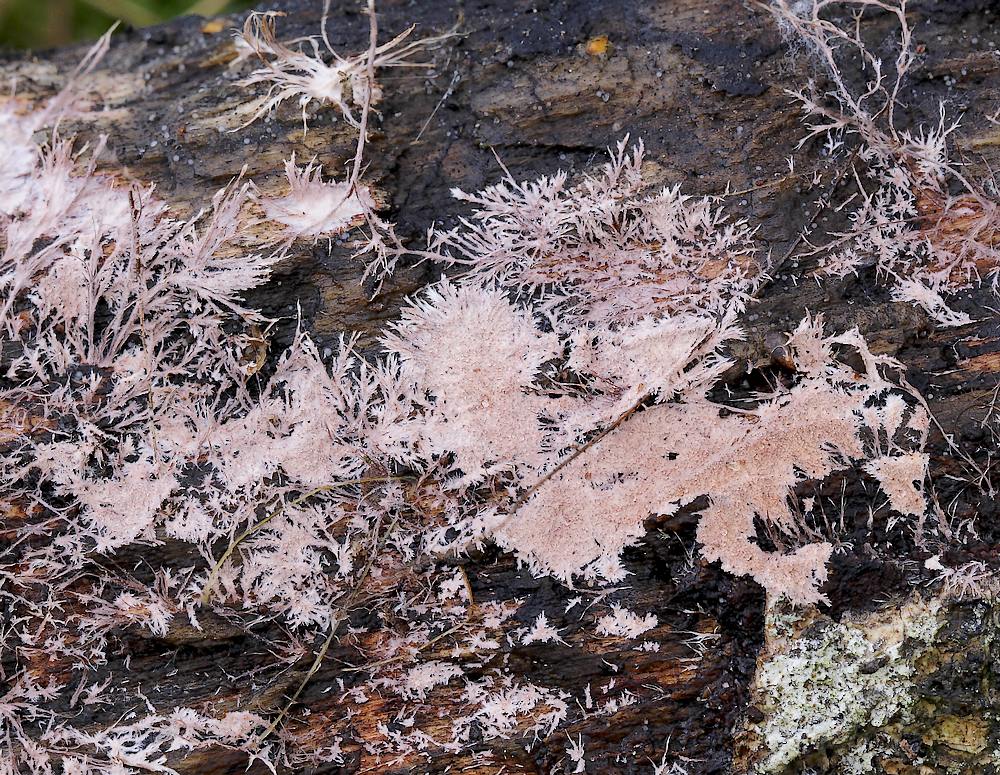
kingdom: Fungi
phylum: Basidiomycota
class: Agaricomycetes
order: Polyporales
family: Steccherinaceae
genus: Steccherinum
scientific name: Steccherinum fimbriatum
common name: trådet skønpig
